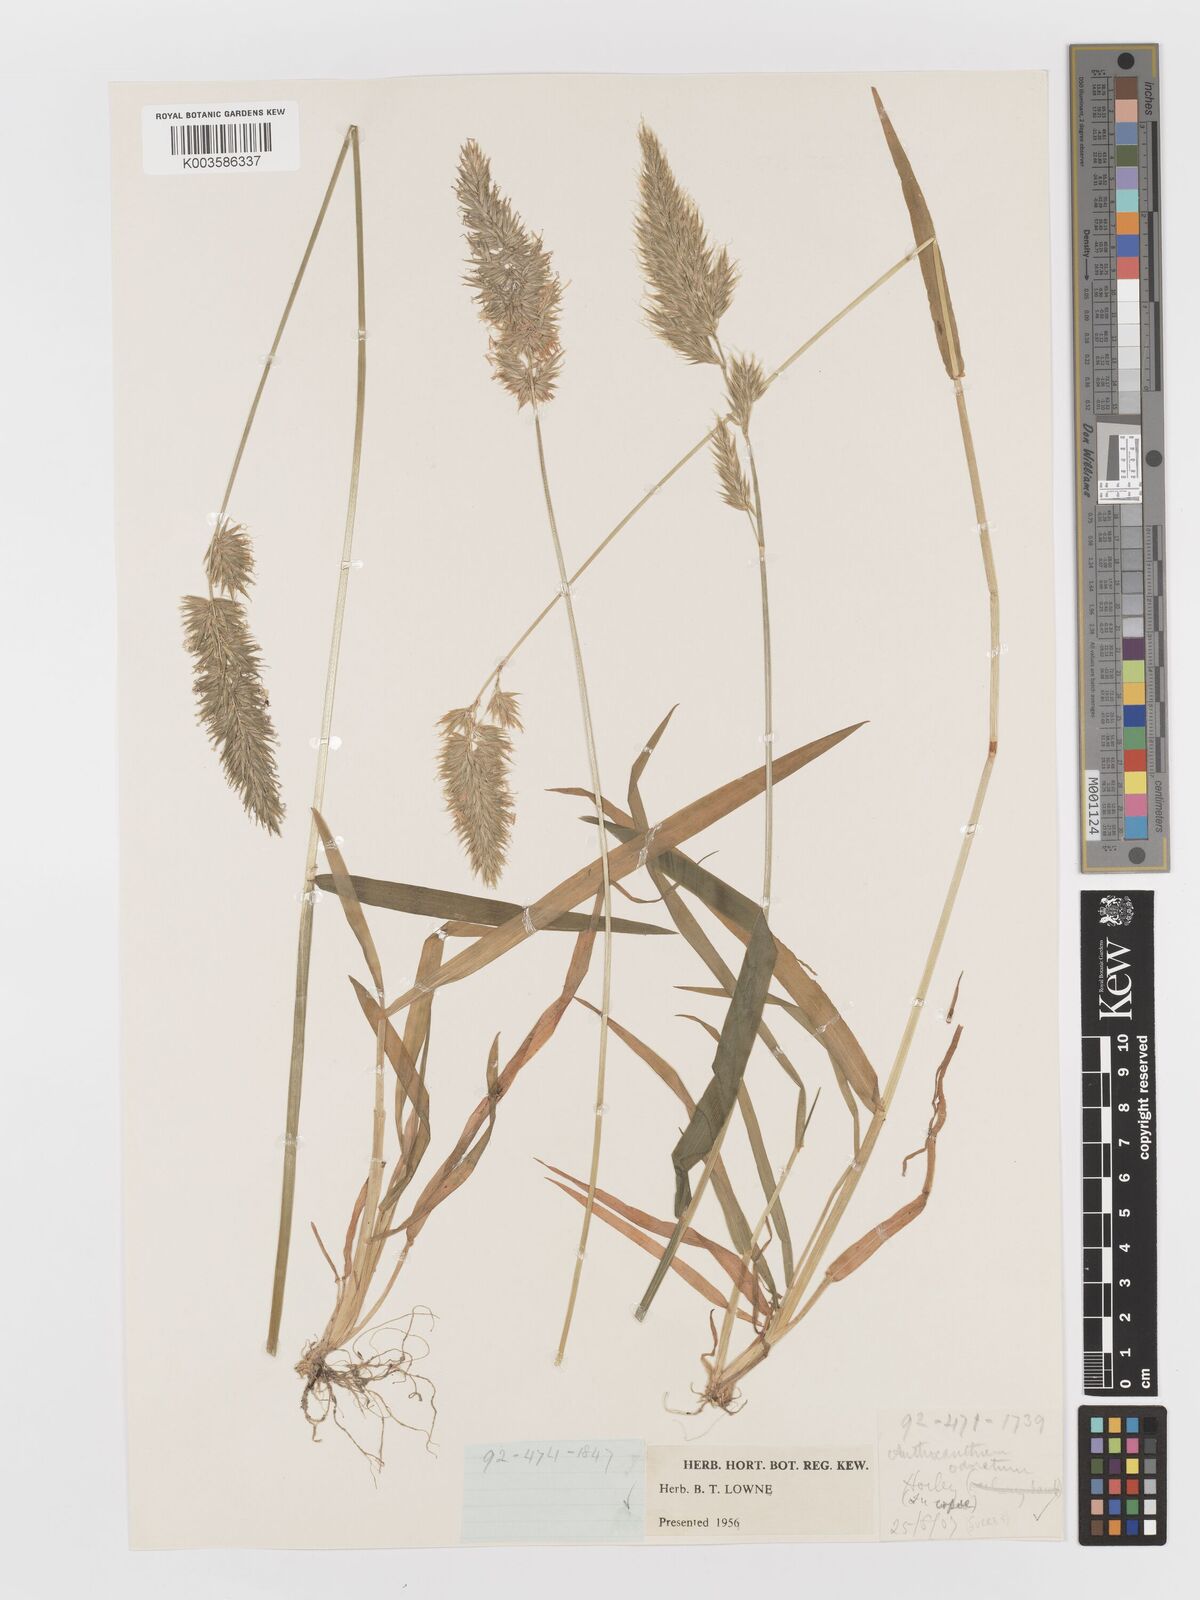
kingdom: Plantae
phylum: Tracheophyta
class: Liliopsida
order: Poales
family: Poaceae
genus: Anthoxanthum
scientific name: Anthoxanthum odoratum
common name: Sweet vernalgrass
